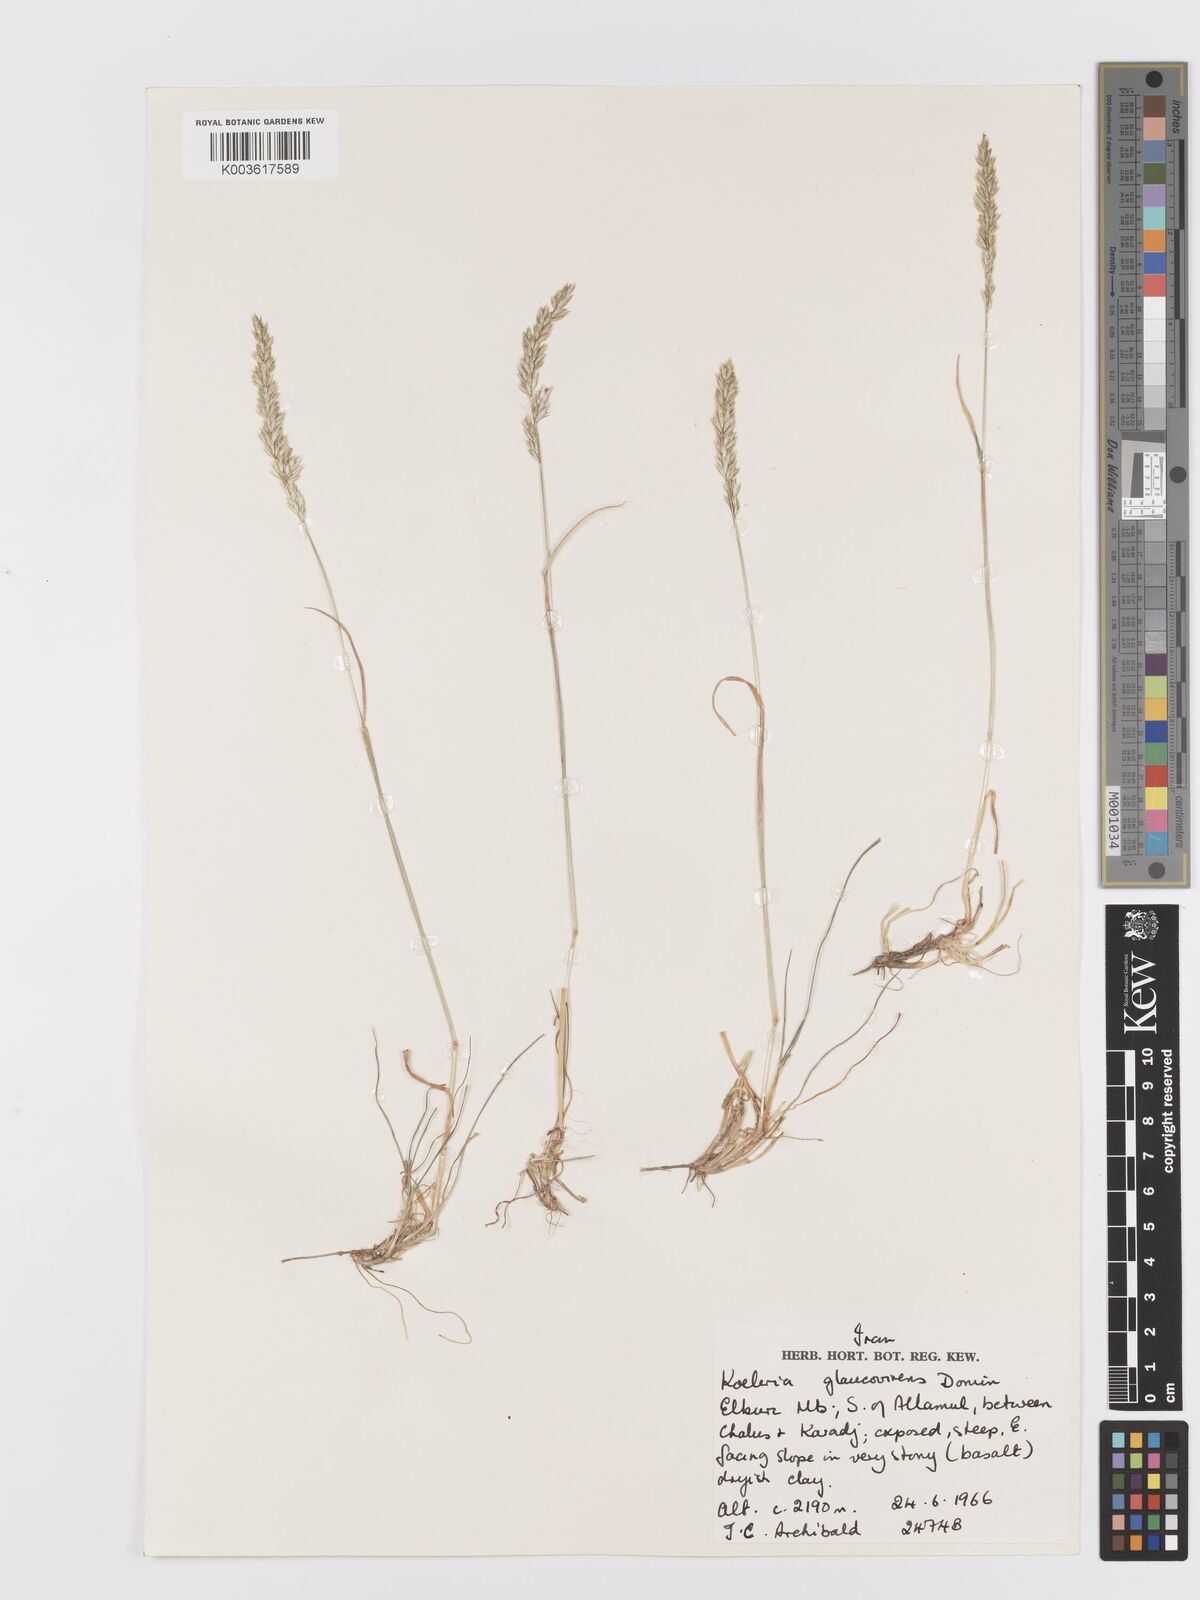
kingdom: Plantae
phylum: Tracheophyta
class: Liliopsida
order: Poales
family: Poaceae
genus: Koeleria
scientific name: Koeleria macrantha
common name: Crested hair-grass
